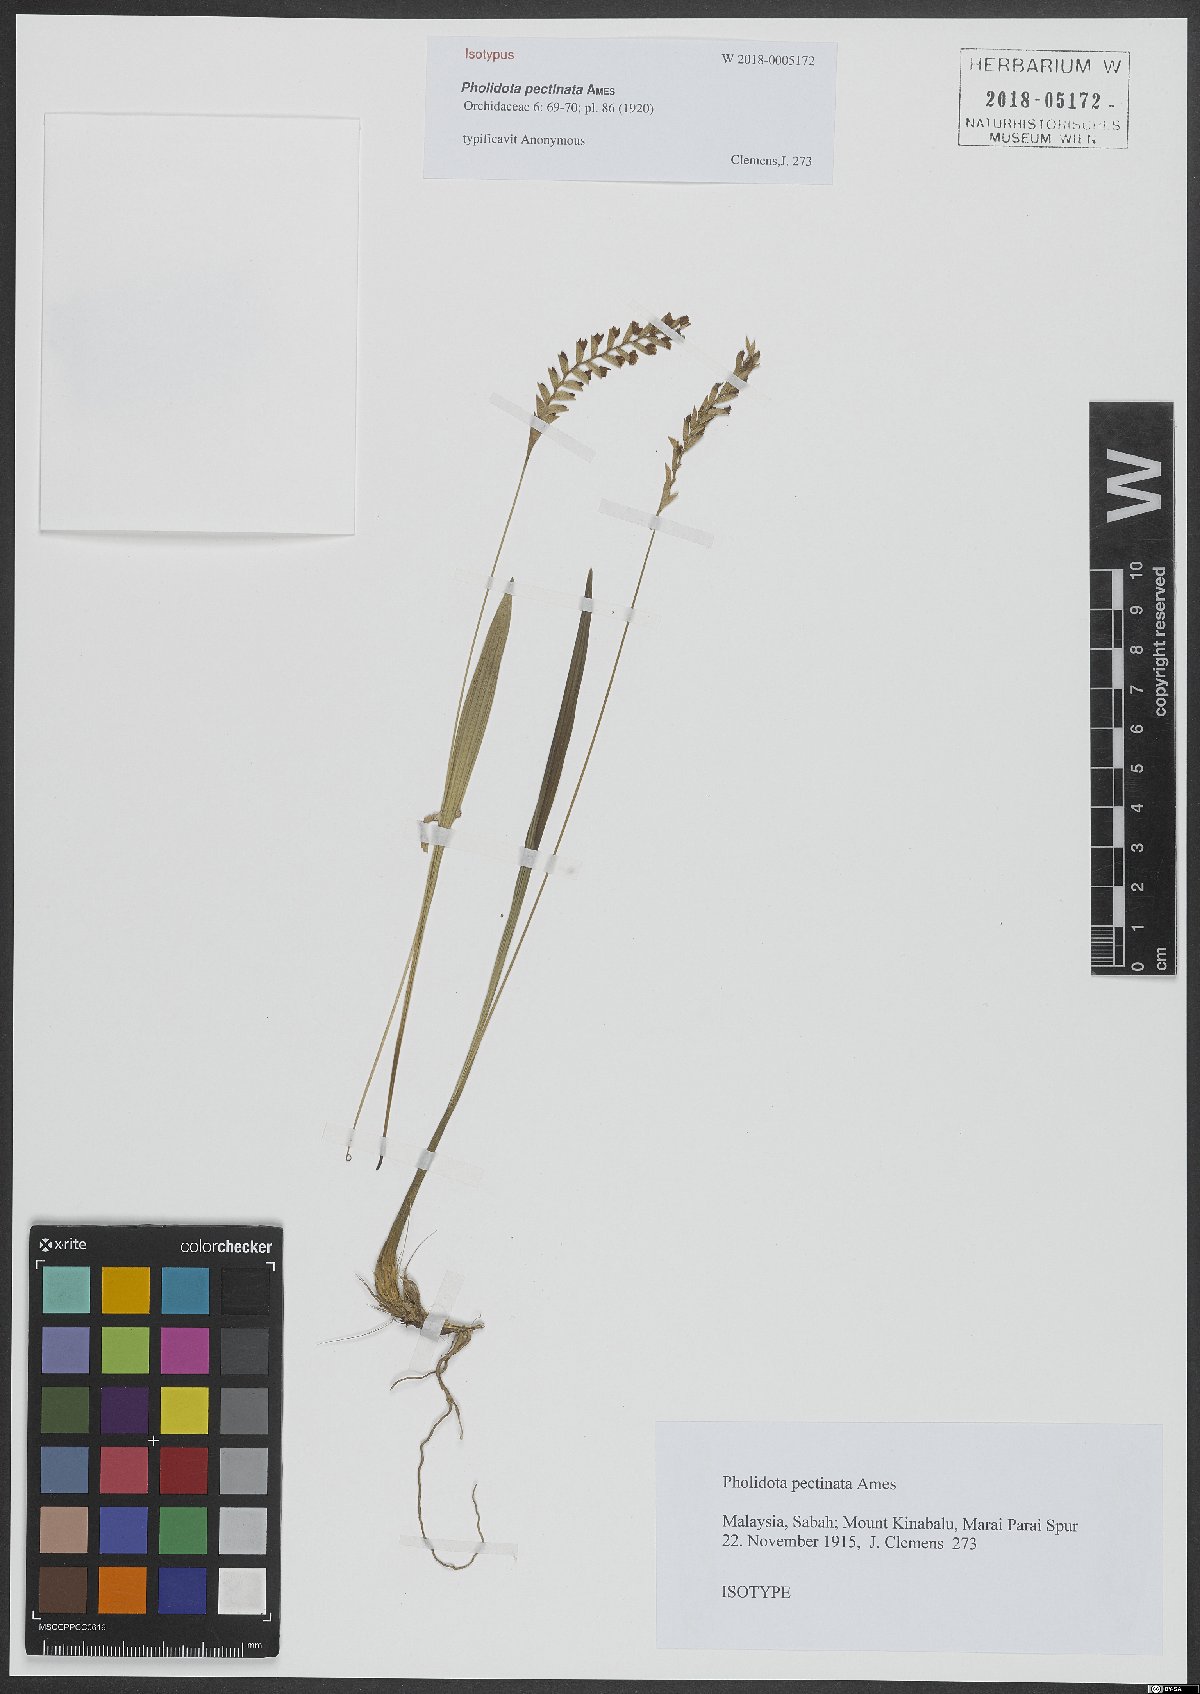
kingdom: Plantae
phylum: Tracheophyta
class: Liliopsida
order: Asparagales
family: Orchidaceae
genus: Coelogyne
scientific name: Coelogyne pectinata
